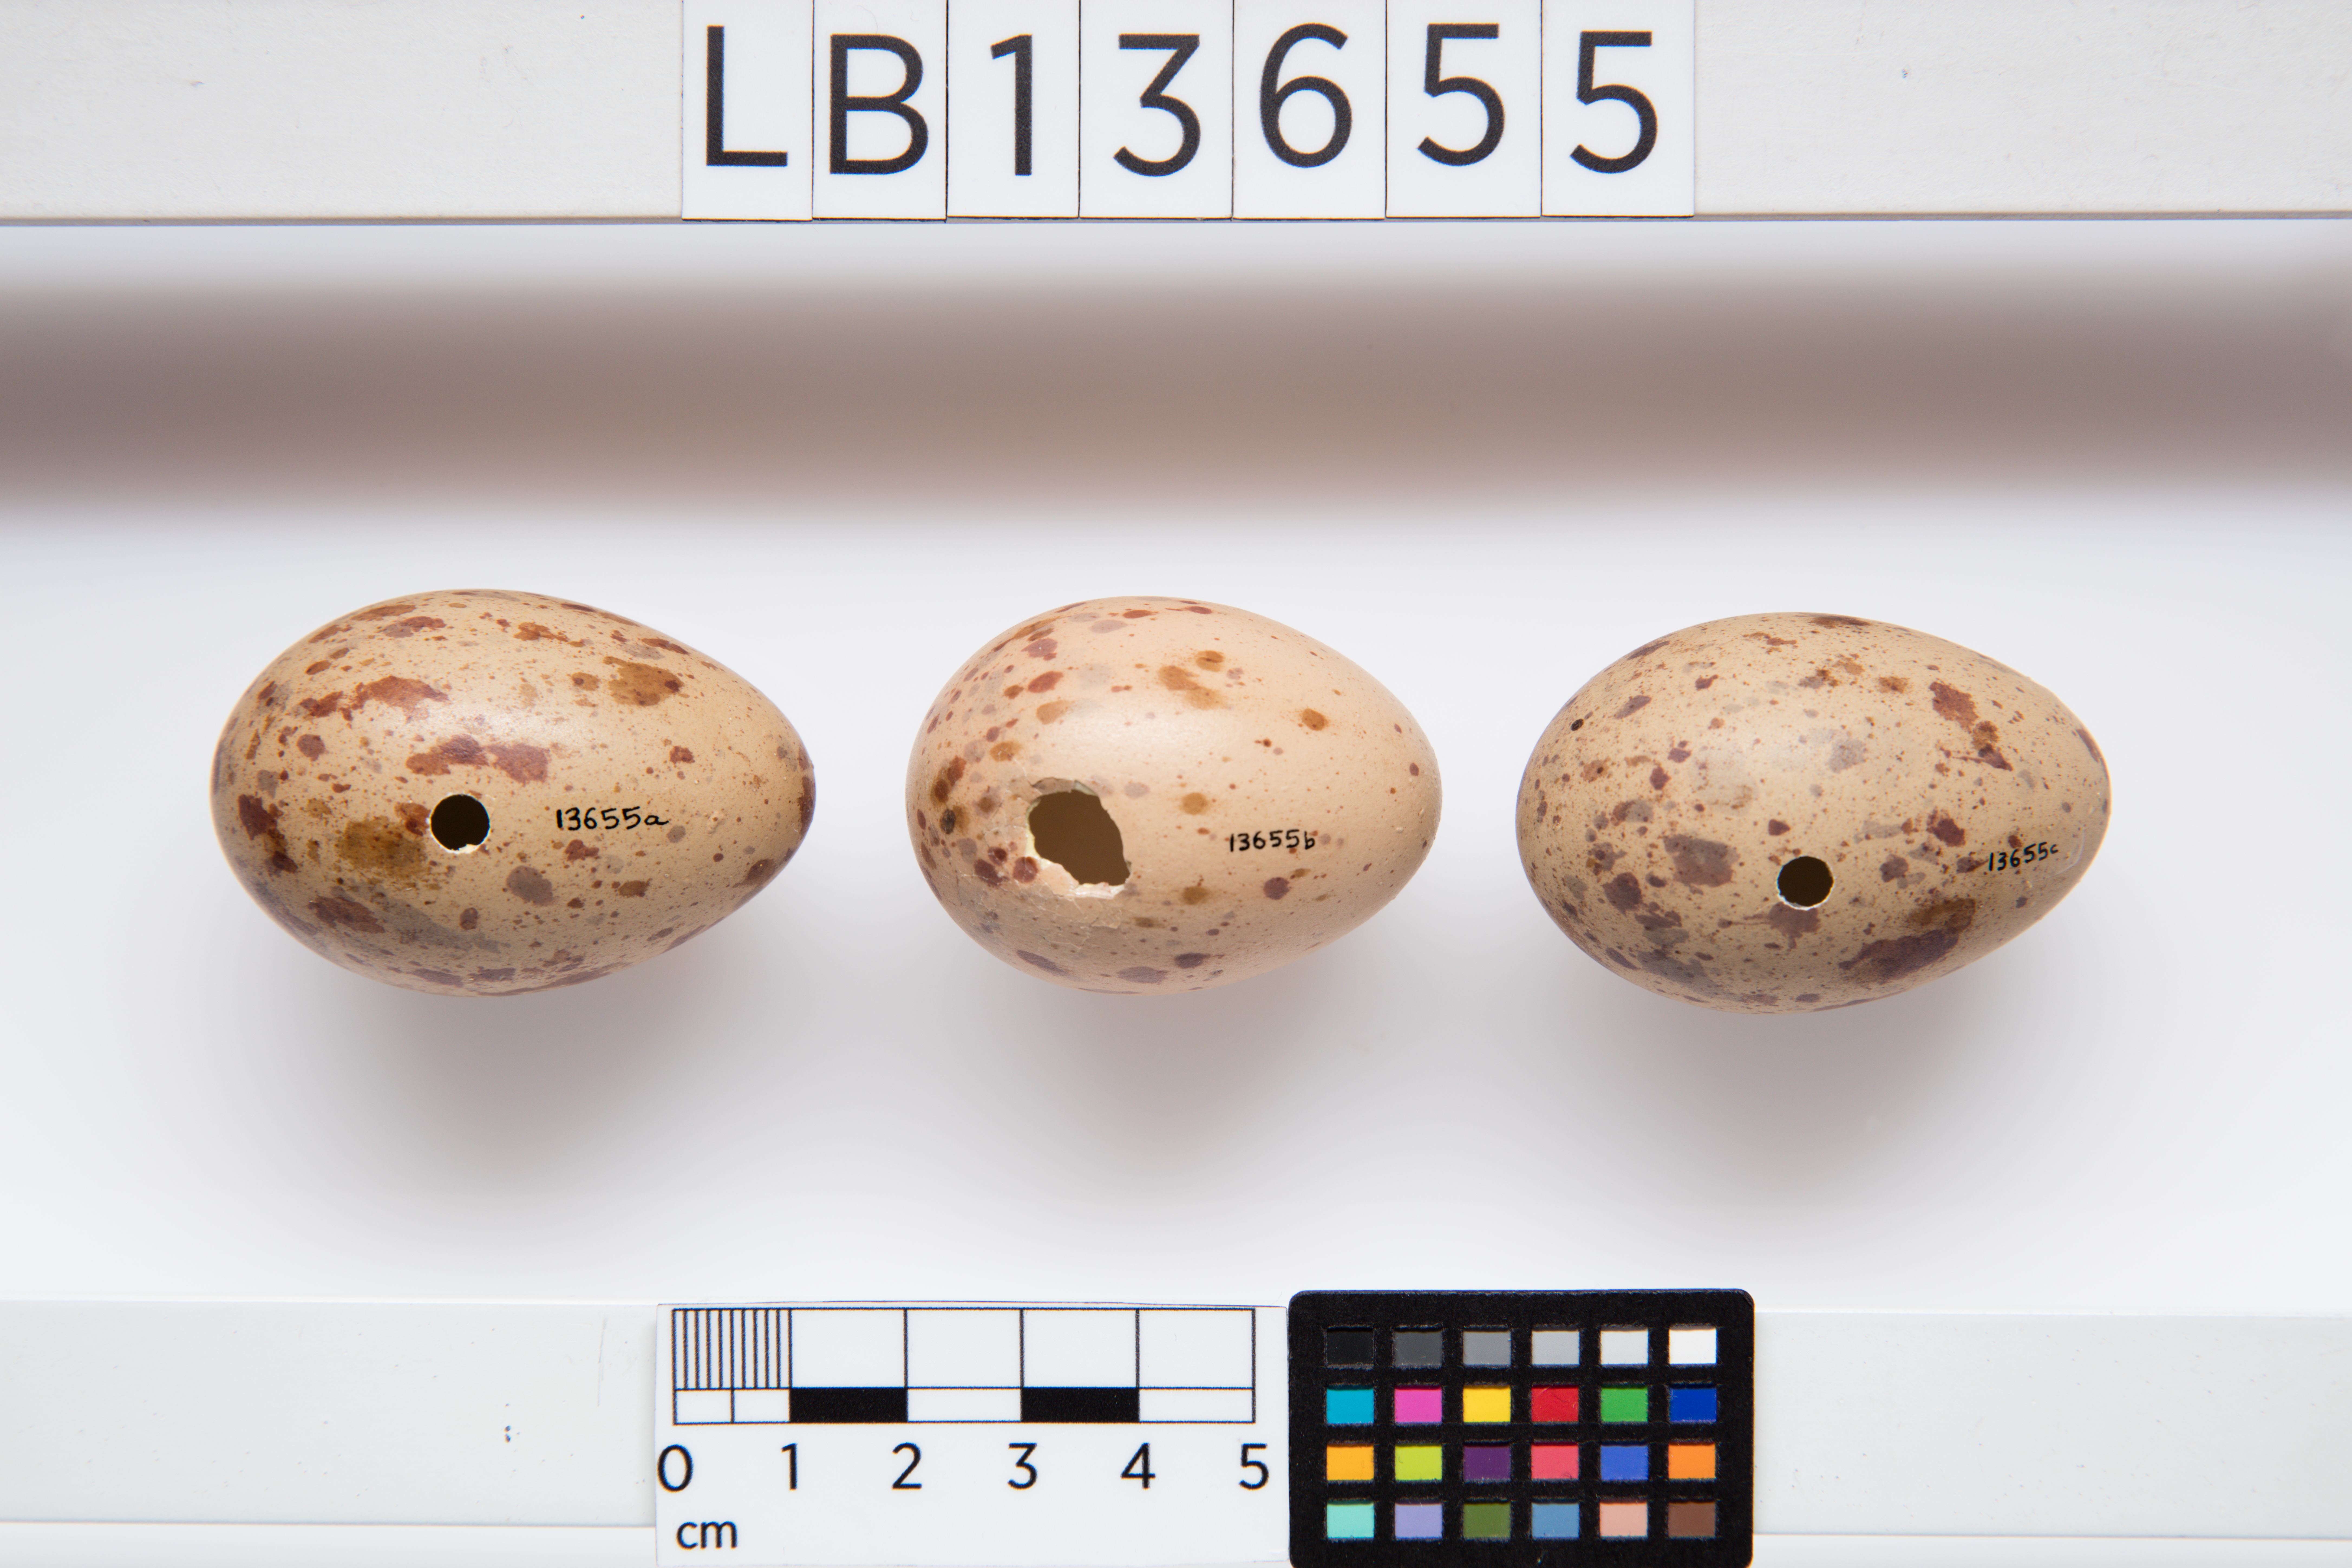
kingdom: Animalia
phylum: Chordata
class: Aves
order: Gruiformes
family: Rallidae
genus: Porphyrio
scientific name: Porphyrio melanotus
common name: Australasian swamphen
